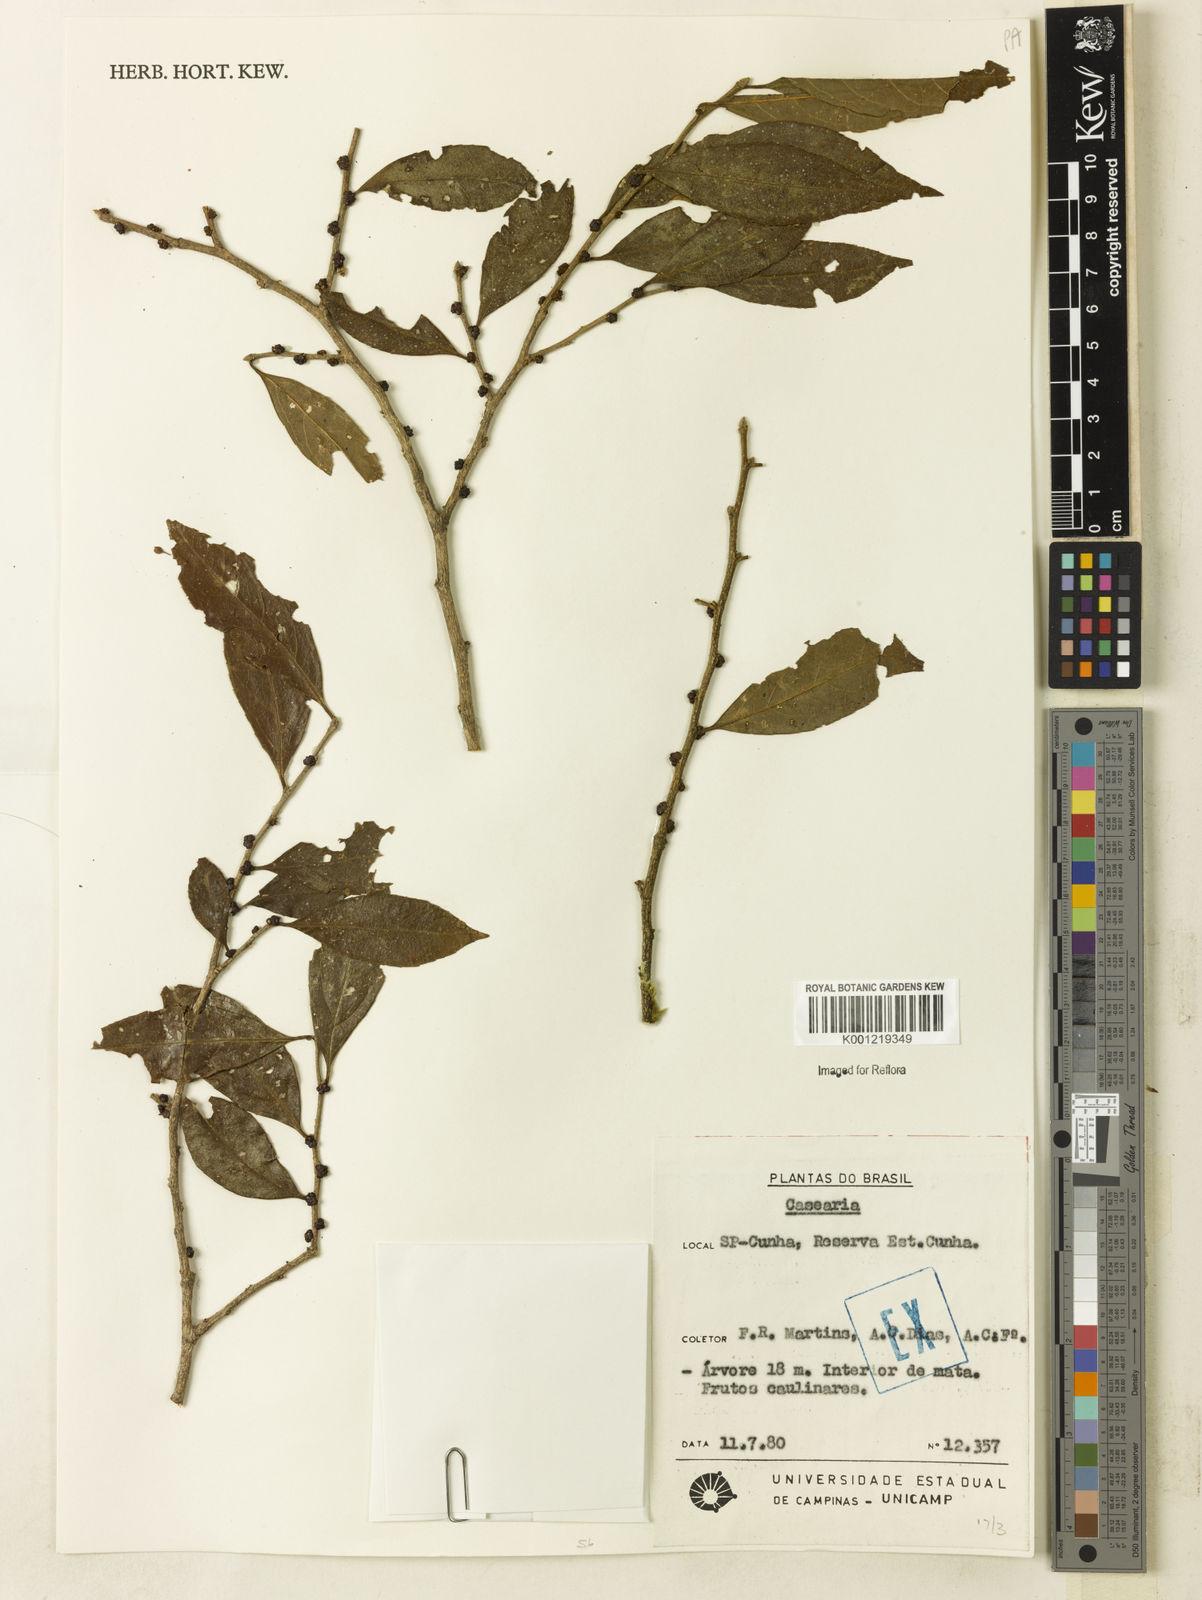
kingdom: Plantae
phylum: Tracheophyta
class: Magnoliopsida
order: Malpighiales
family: Salicaceae
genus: Casearia
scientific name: Casearia
